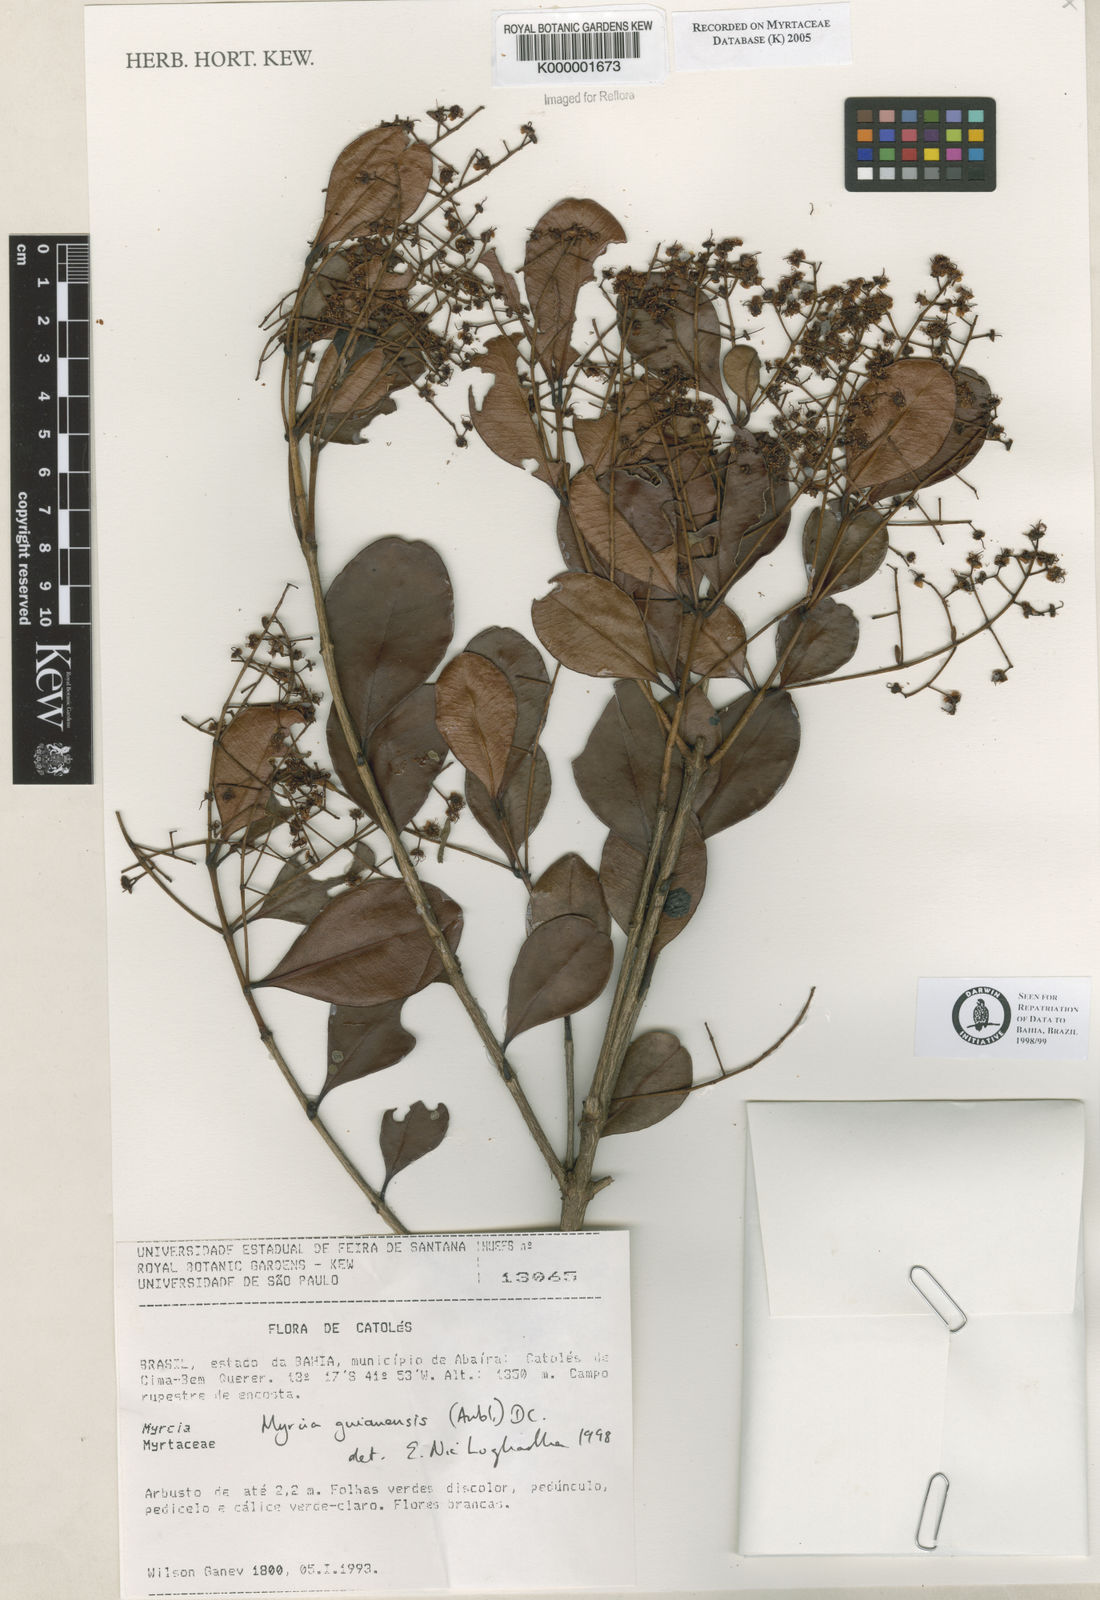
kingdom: Plantae
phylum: Tracheophyta
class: Magnoliopsida
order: Myrtales
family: Myrtaceae
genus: Myrcia
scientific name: Myrcia guianensis
